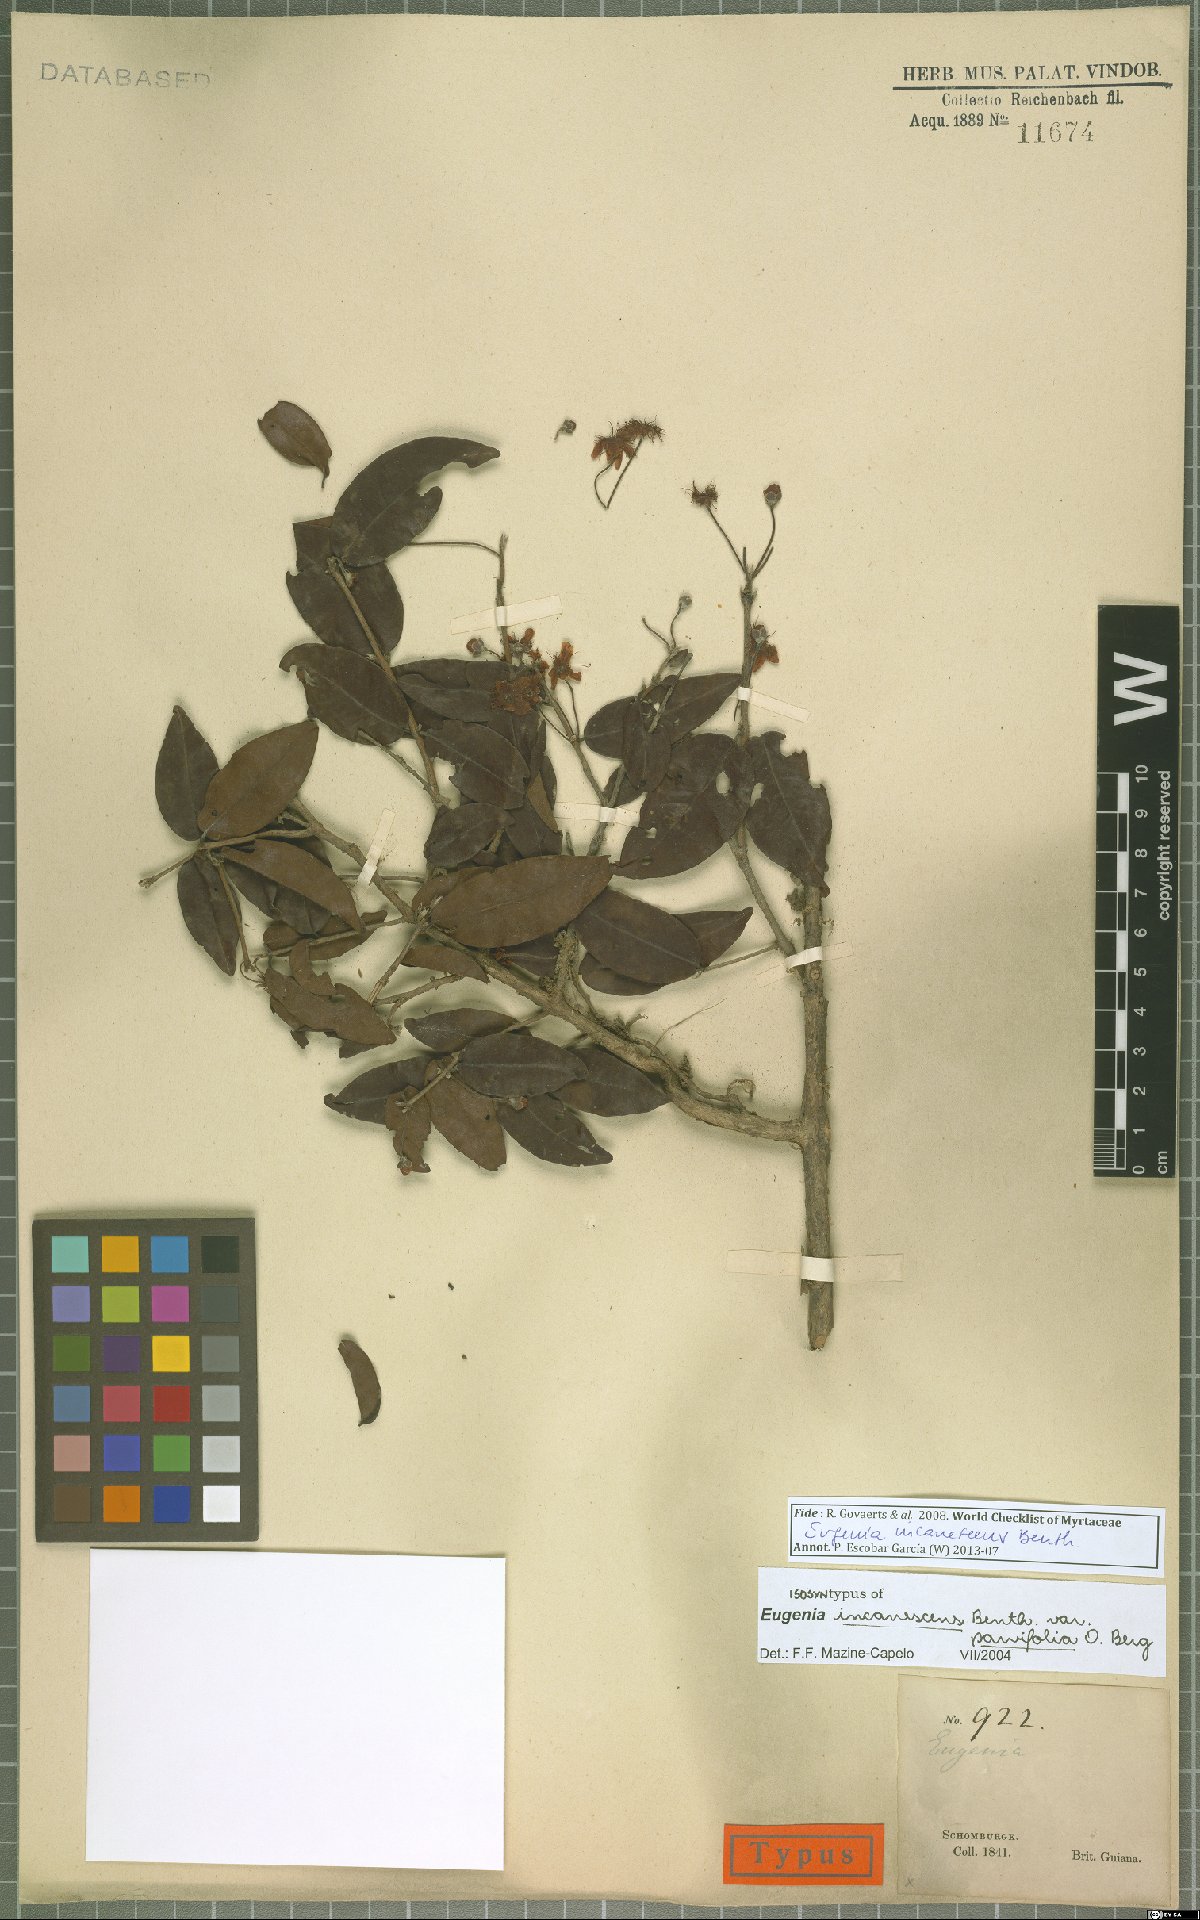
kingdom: Plantae
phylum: Tracheophyta
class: Magnoliopsida
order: Myrtales
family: Myrtaceae
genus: Eugenia
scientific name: Eugenia incanescens
